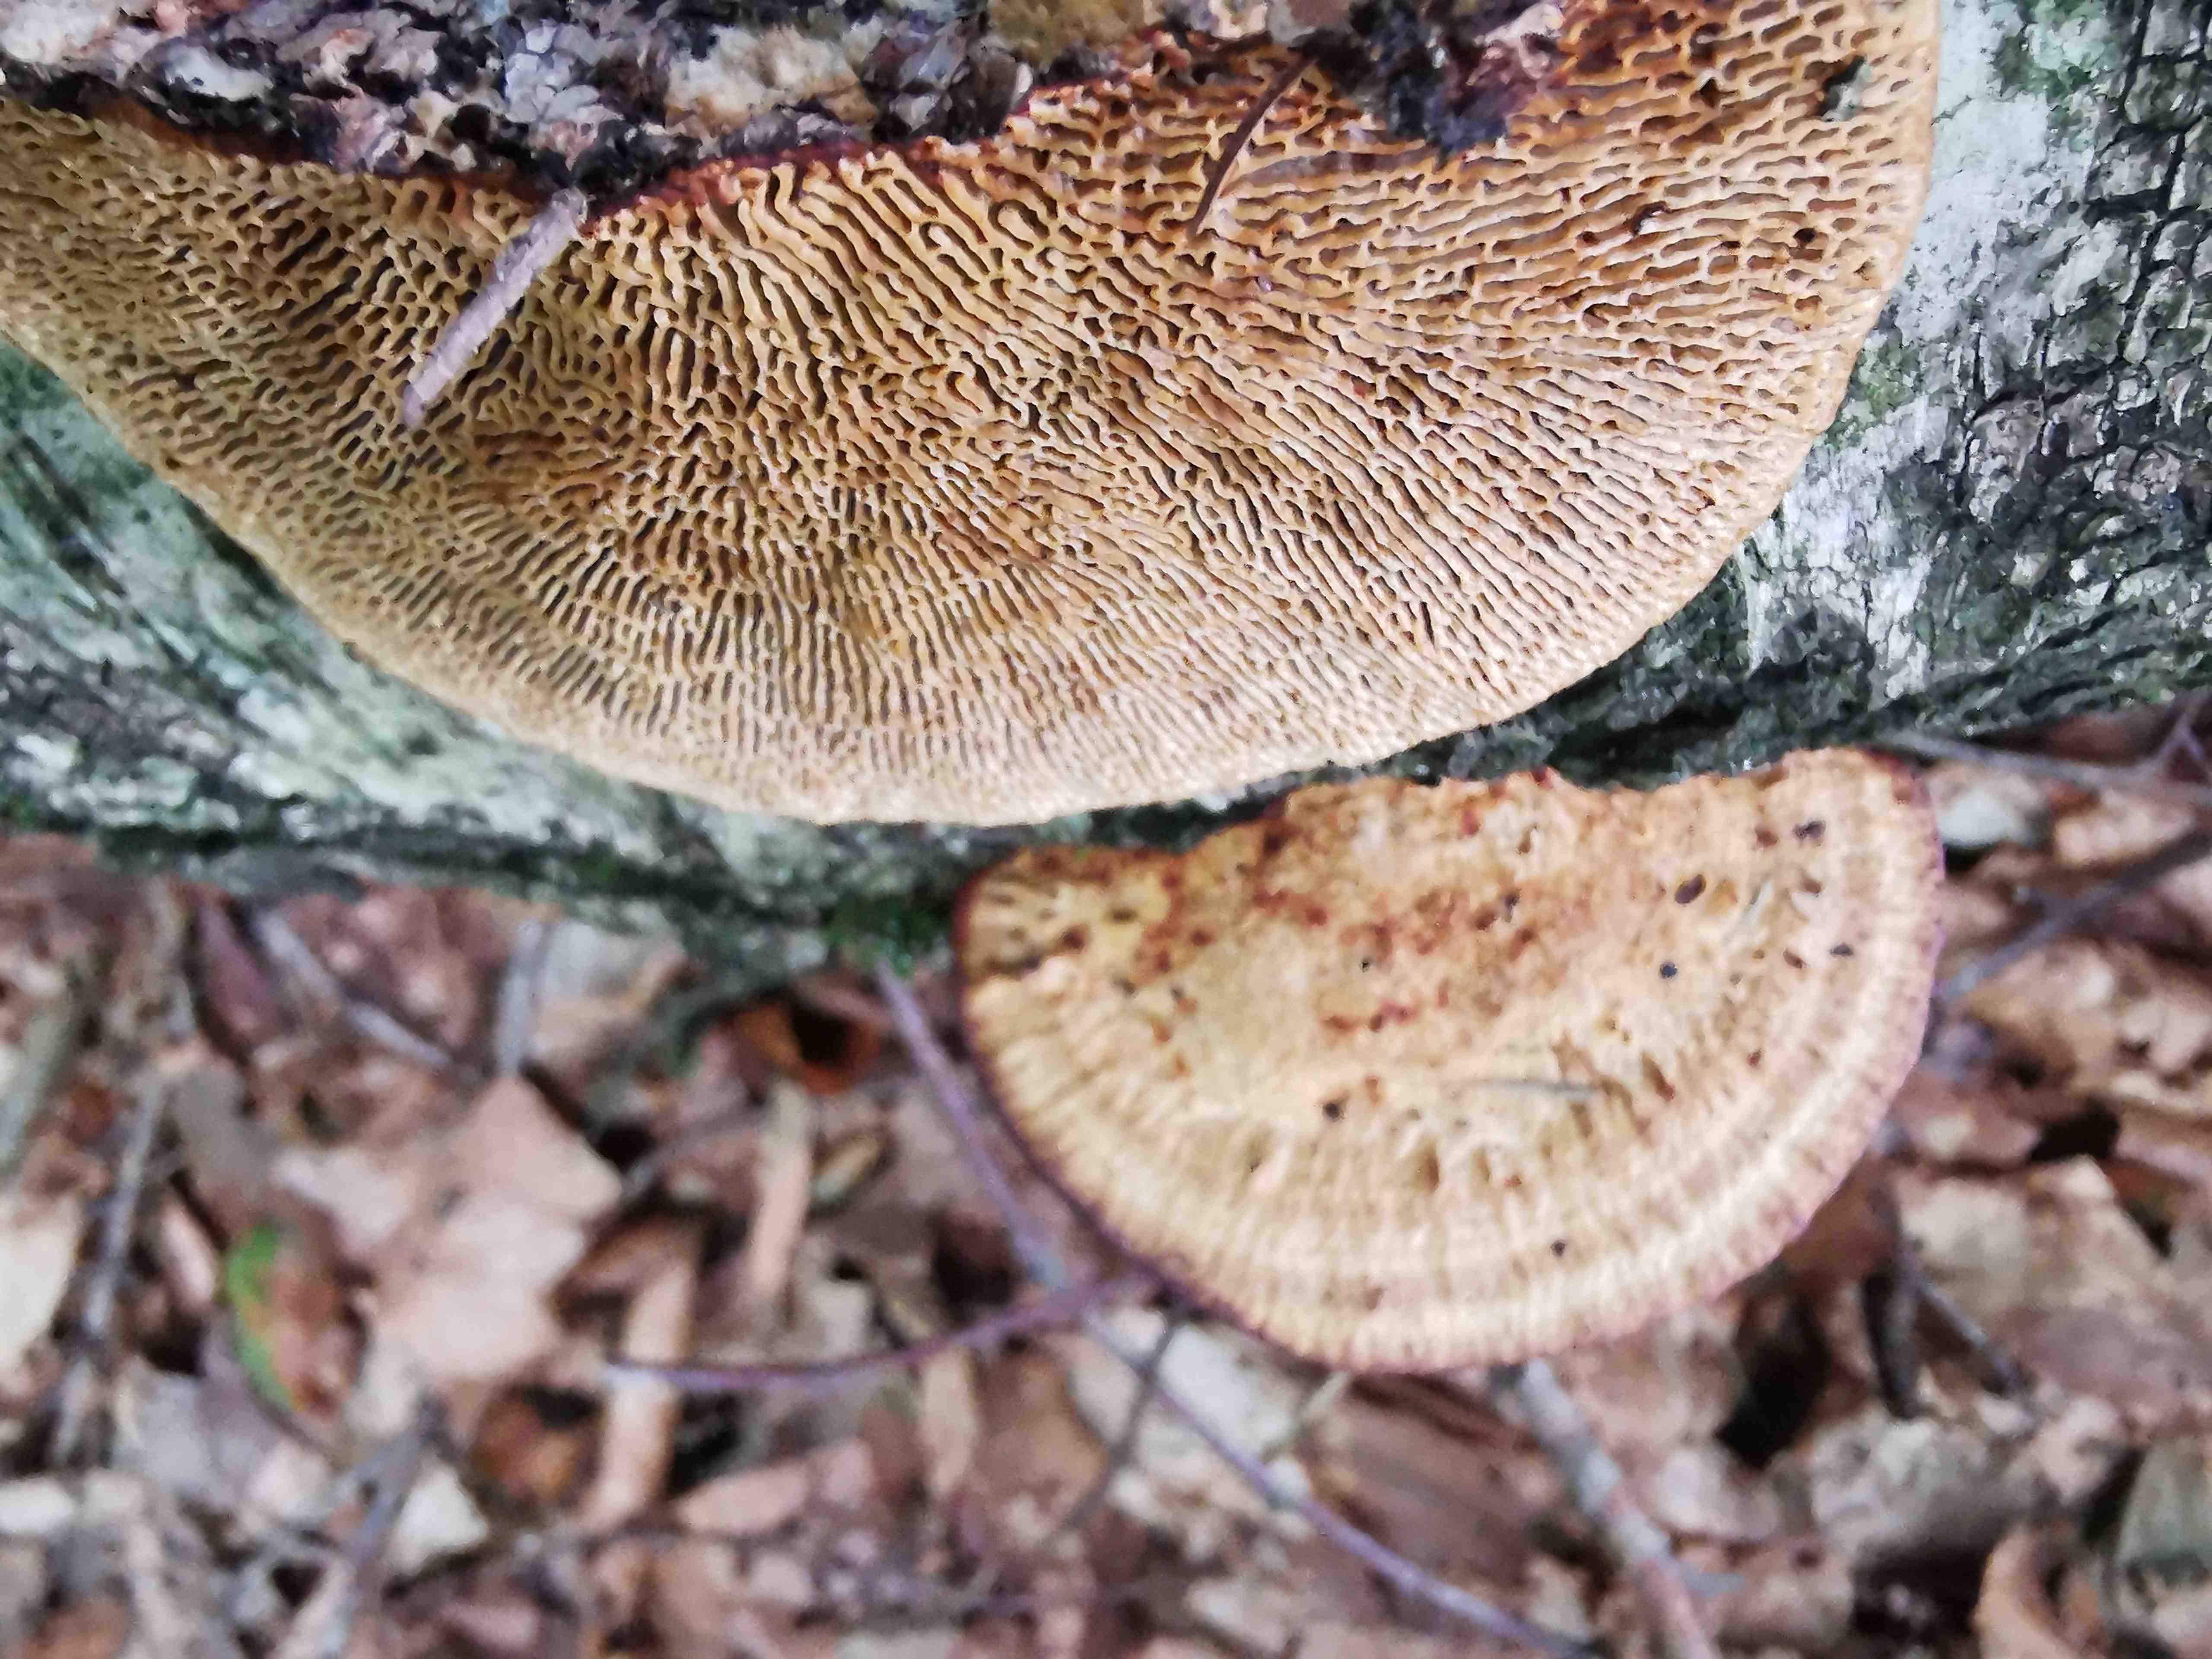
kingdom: Fungi
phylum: Basidiomycota
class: Agaricomycetes
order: Polyporales
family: Polyporaceae
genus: Daedaleopsis
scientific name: Daedaleopsis confragosa
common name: rødmende læderporesvamp
